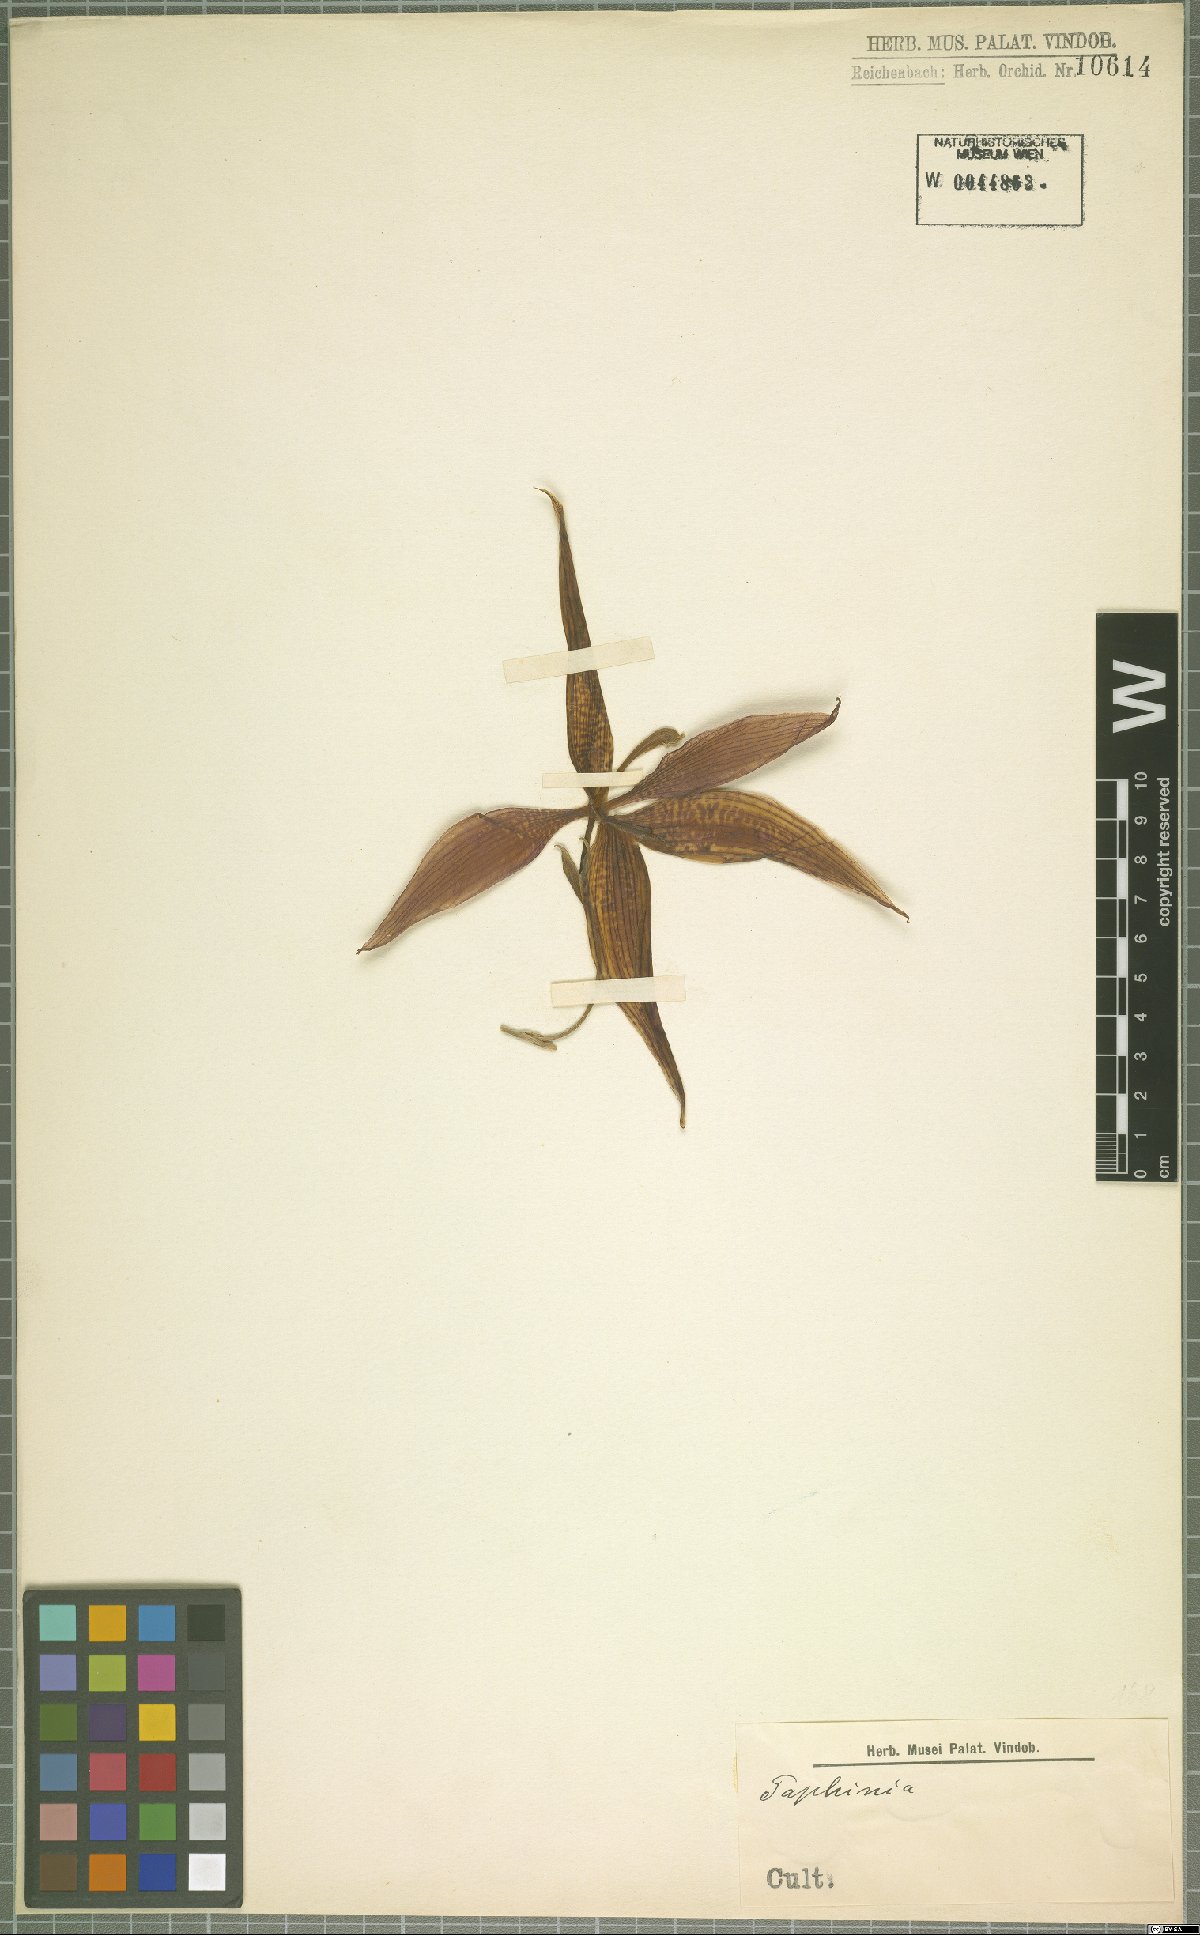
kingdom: Plantae
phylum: Tracheophyta
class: Liliopsida
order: Asparagales
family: Orchidaceae
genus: Paphinia
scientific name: Paphinia
